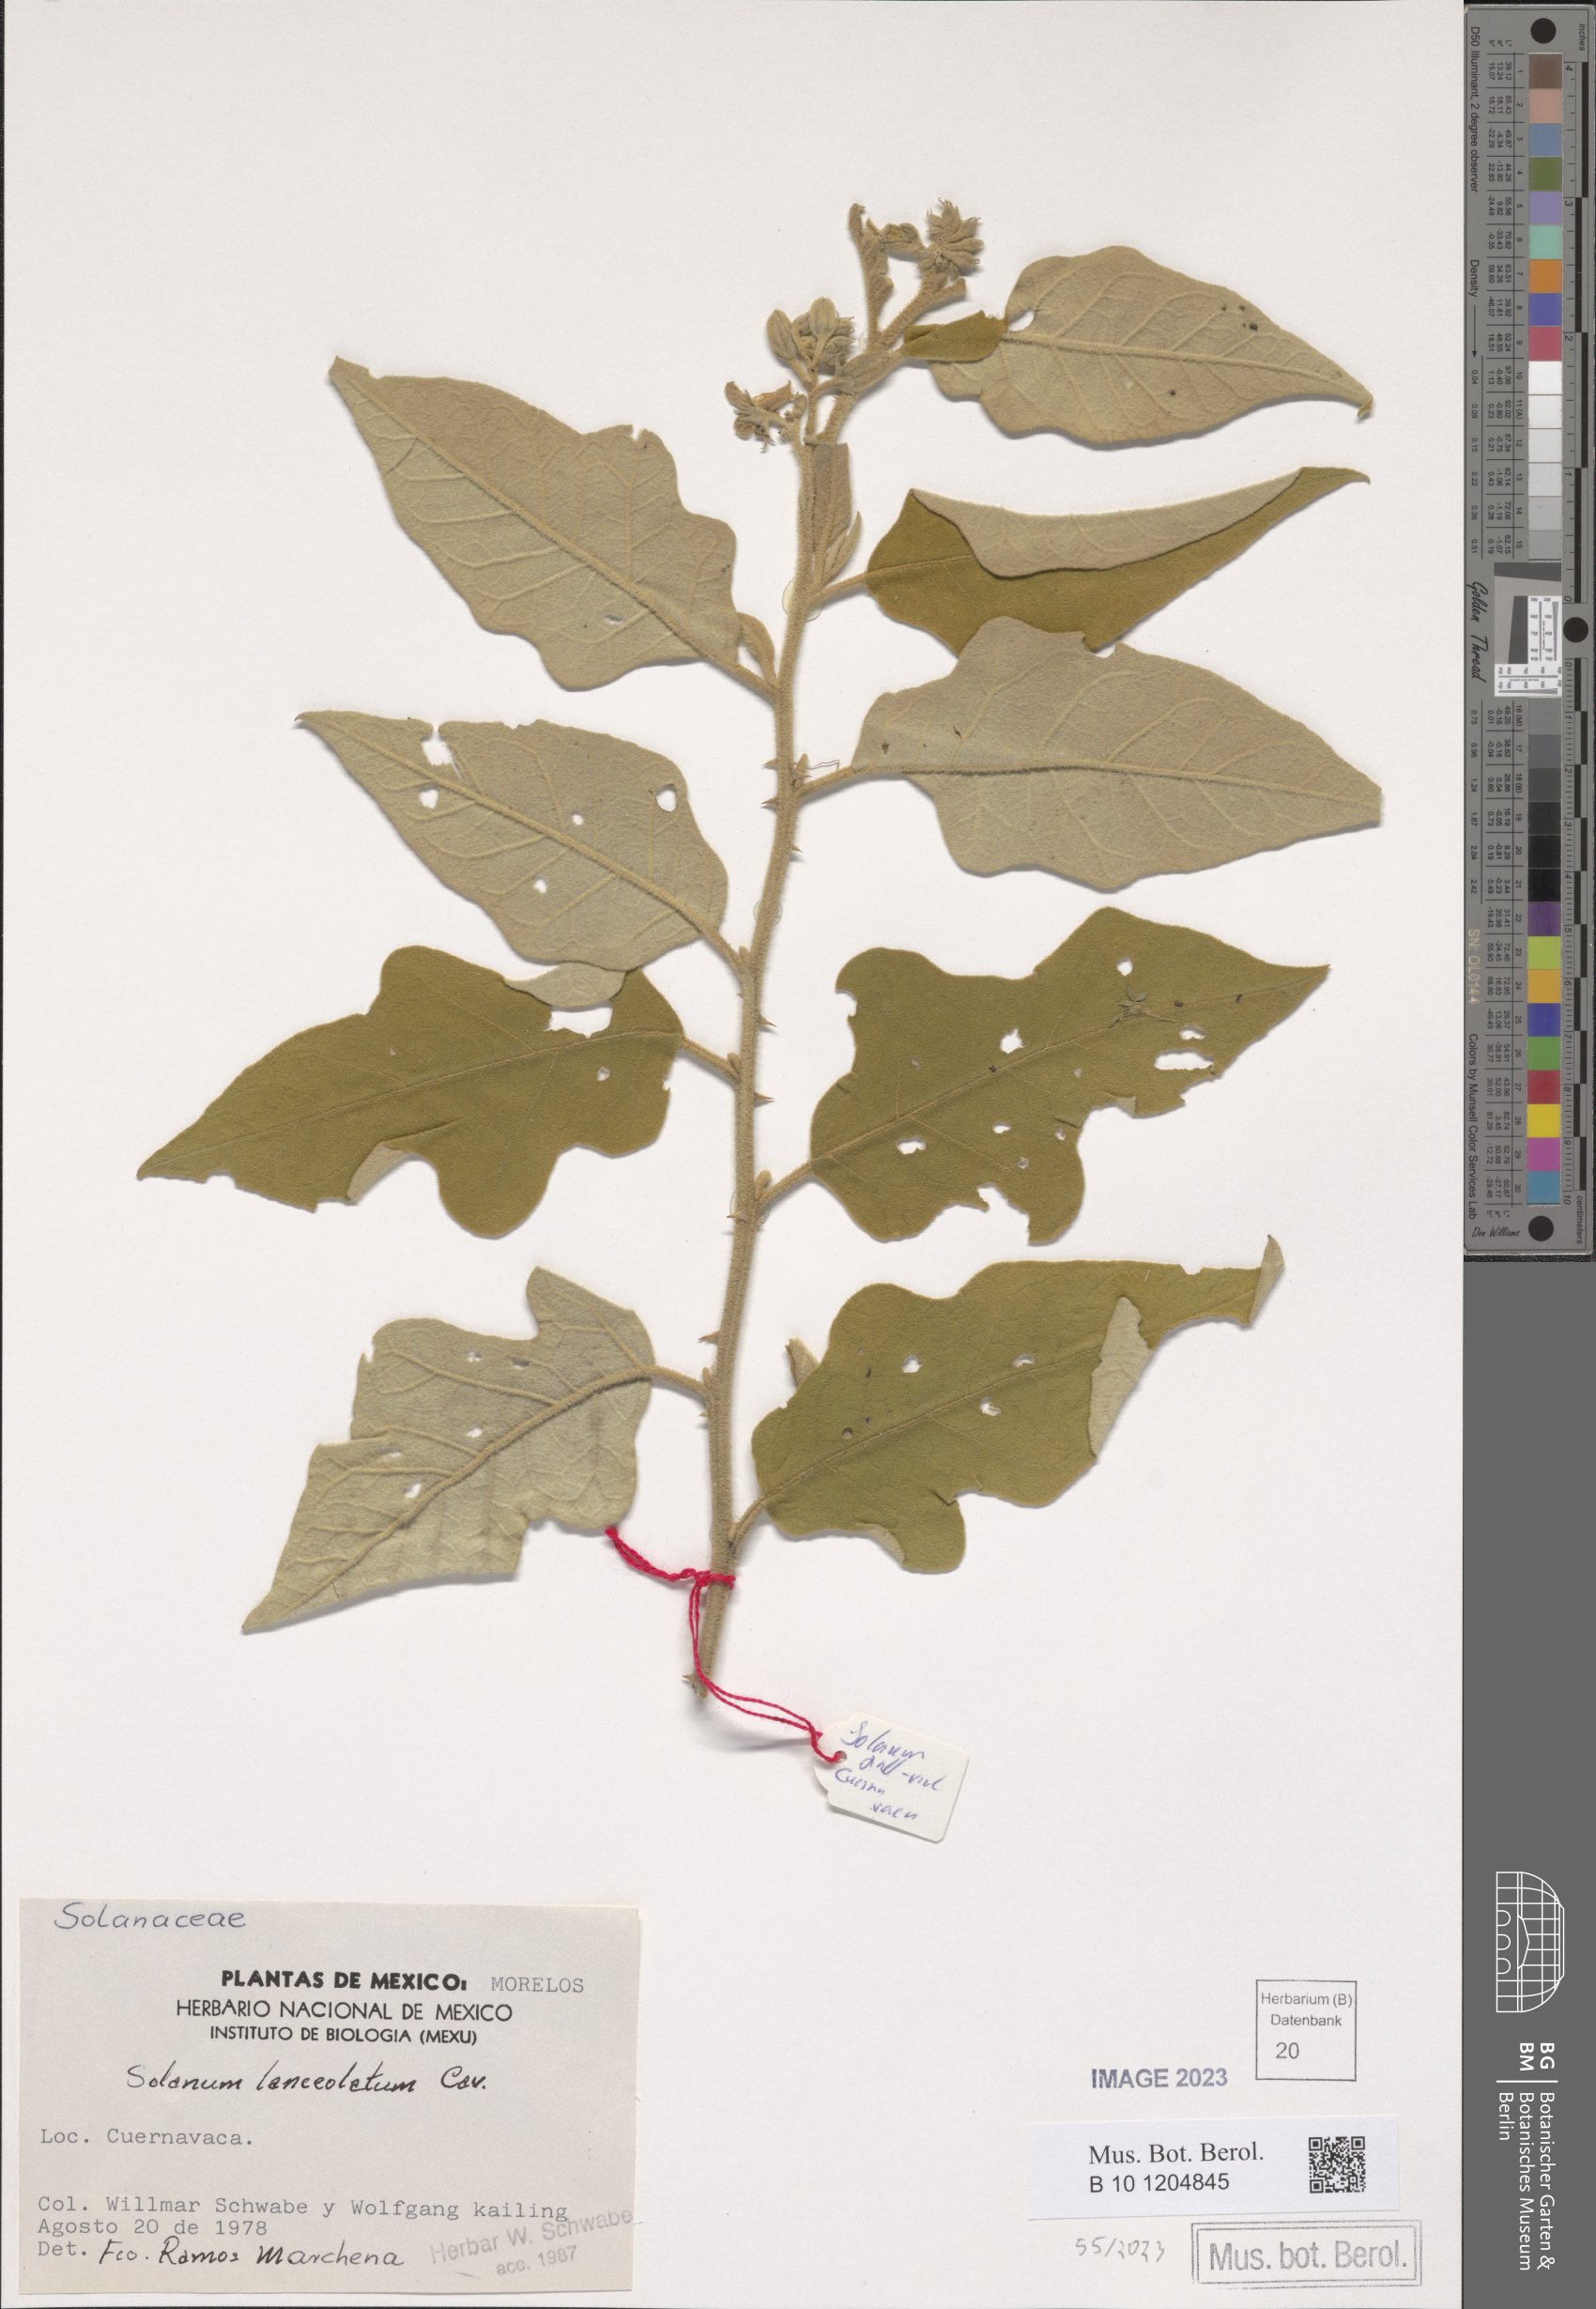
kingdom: Plantae
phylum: Tracheophyta
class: Magnoliopsida
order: Solanales
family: Solanaceae
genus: Solanum
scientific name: Solanum lanceolatum
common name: Orangeberry nightshade
